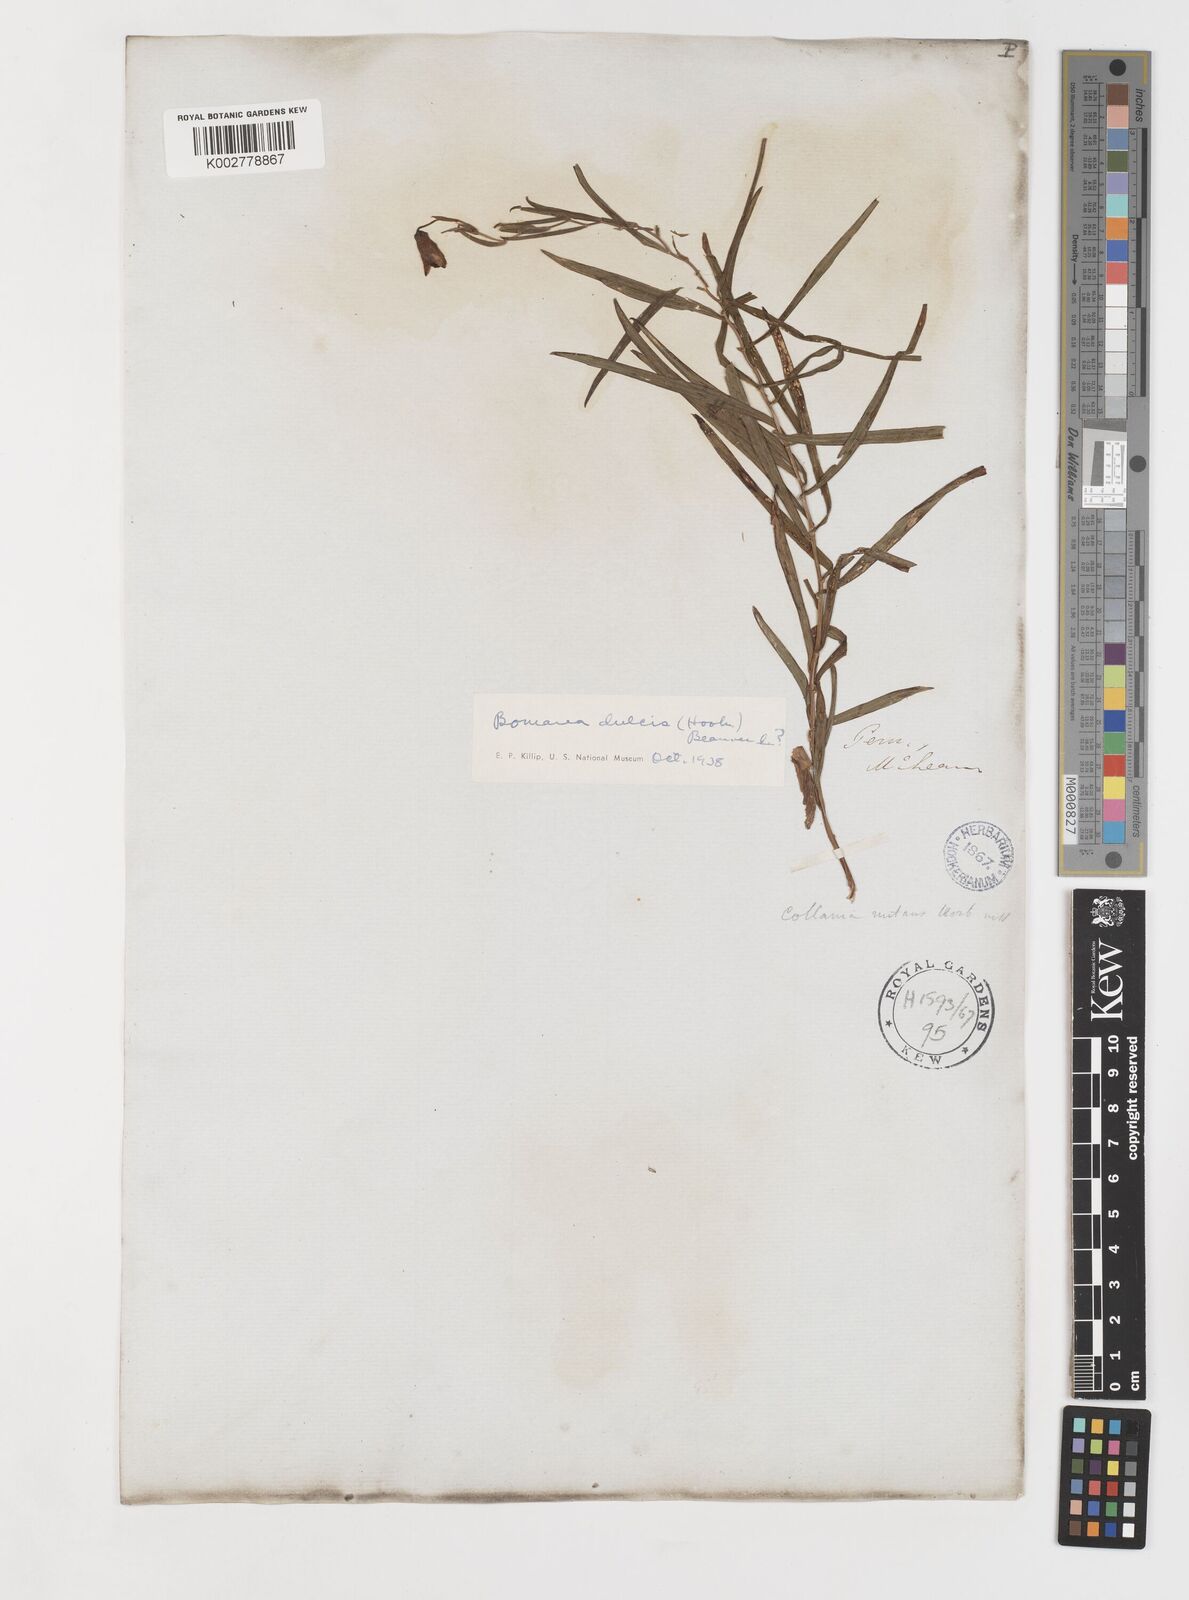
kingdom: Plantae
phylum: Tracheophyta
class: Liliopsida
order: Liliales
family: Alstroemeriaceae
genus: Bomarea
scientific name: Bomarea dulcis
